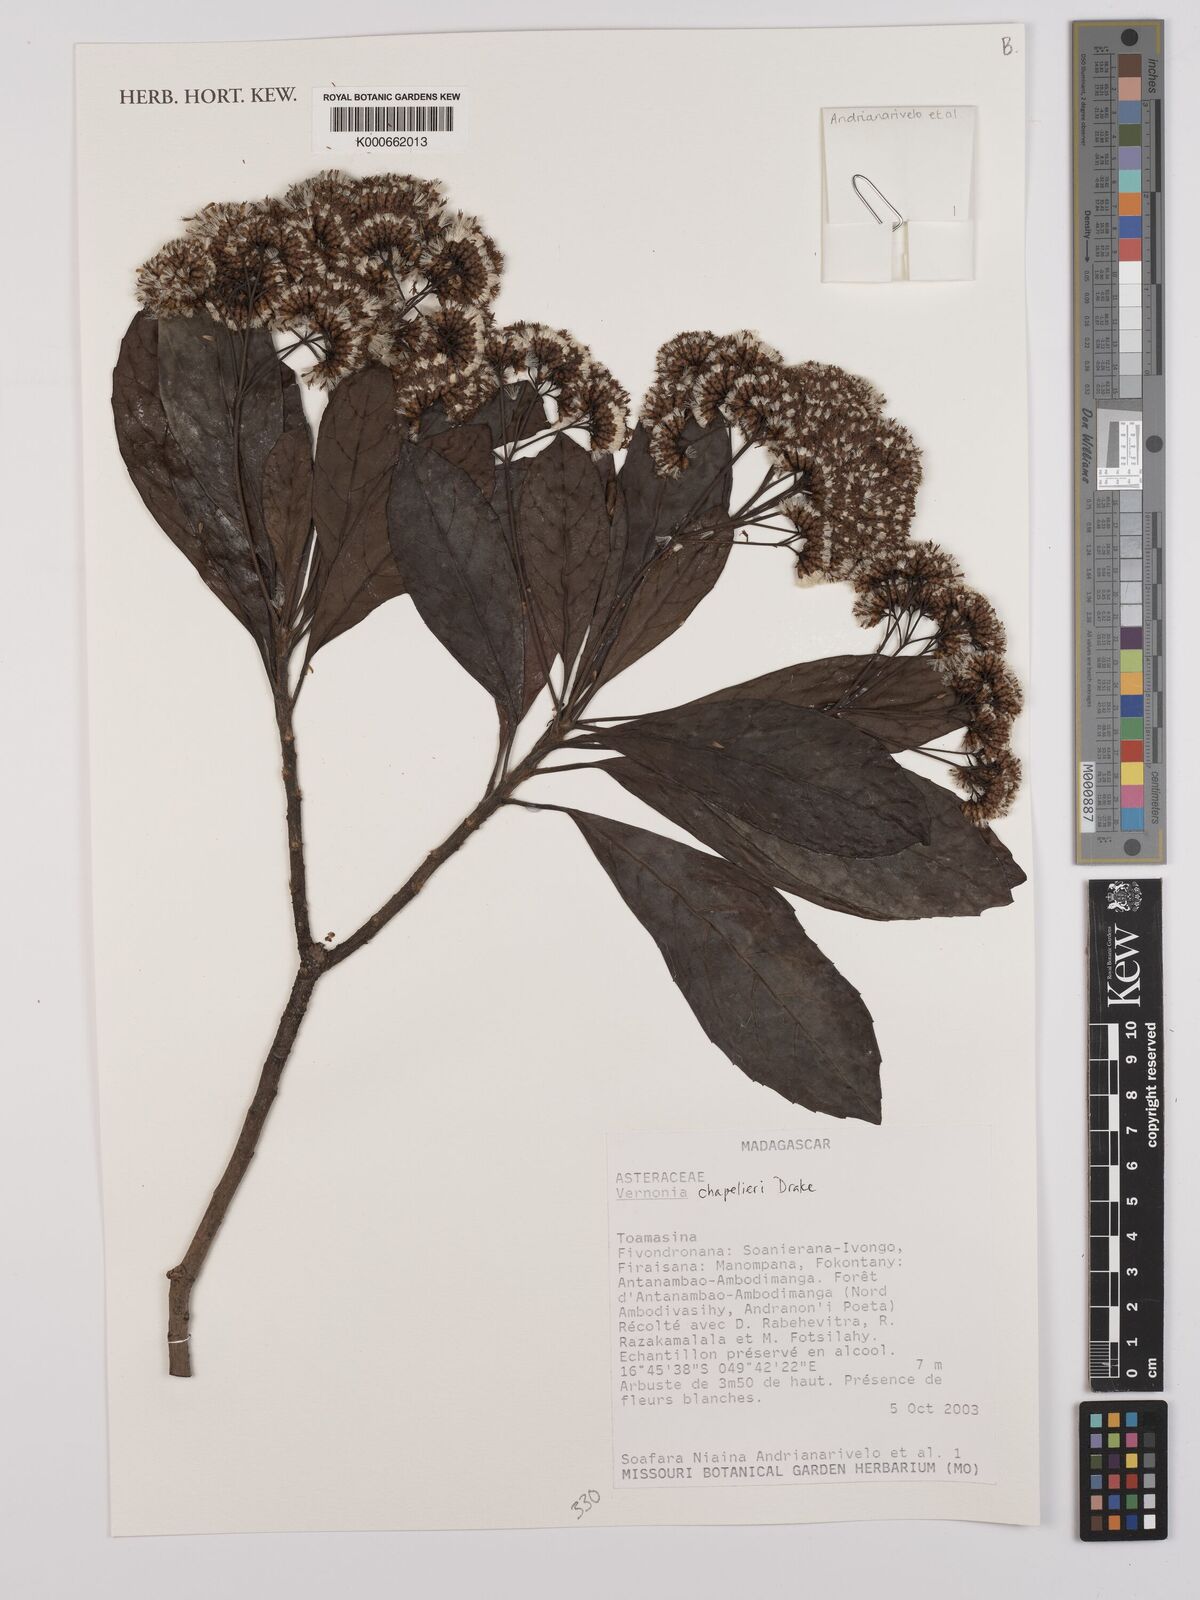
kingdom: Plantae
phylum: Tracheophyta
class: Magnoliopsida
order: Asterales
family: Asteraceae
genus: Gymnanthemum
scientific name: Gymnanthemum chapelieri
